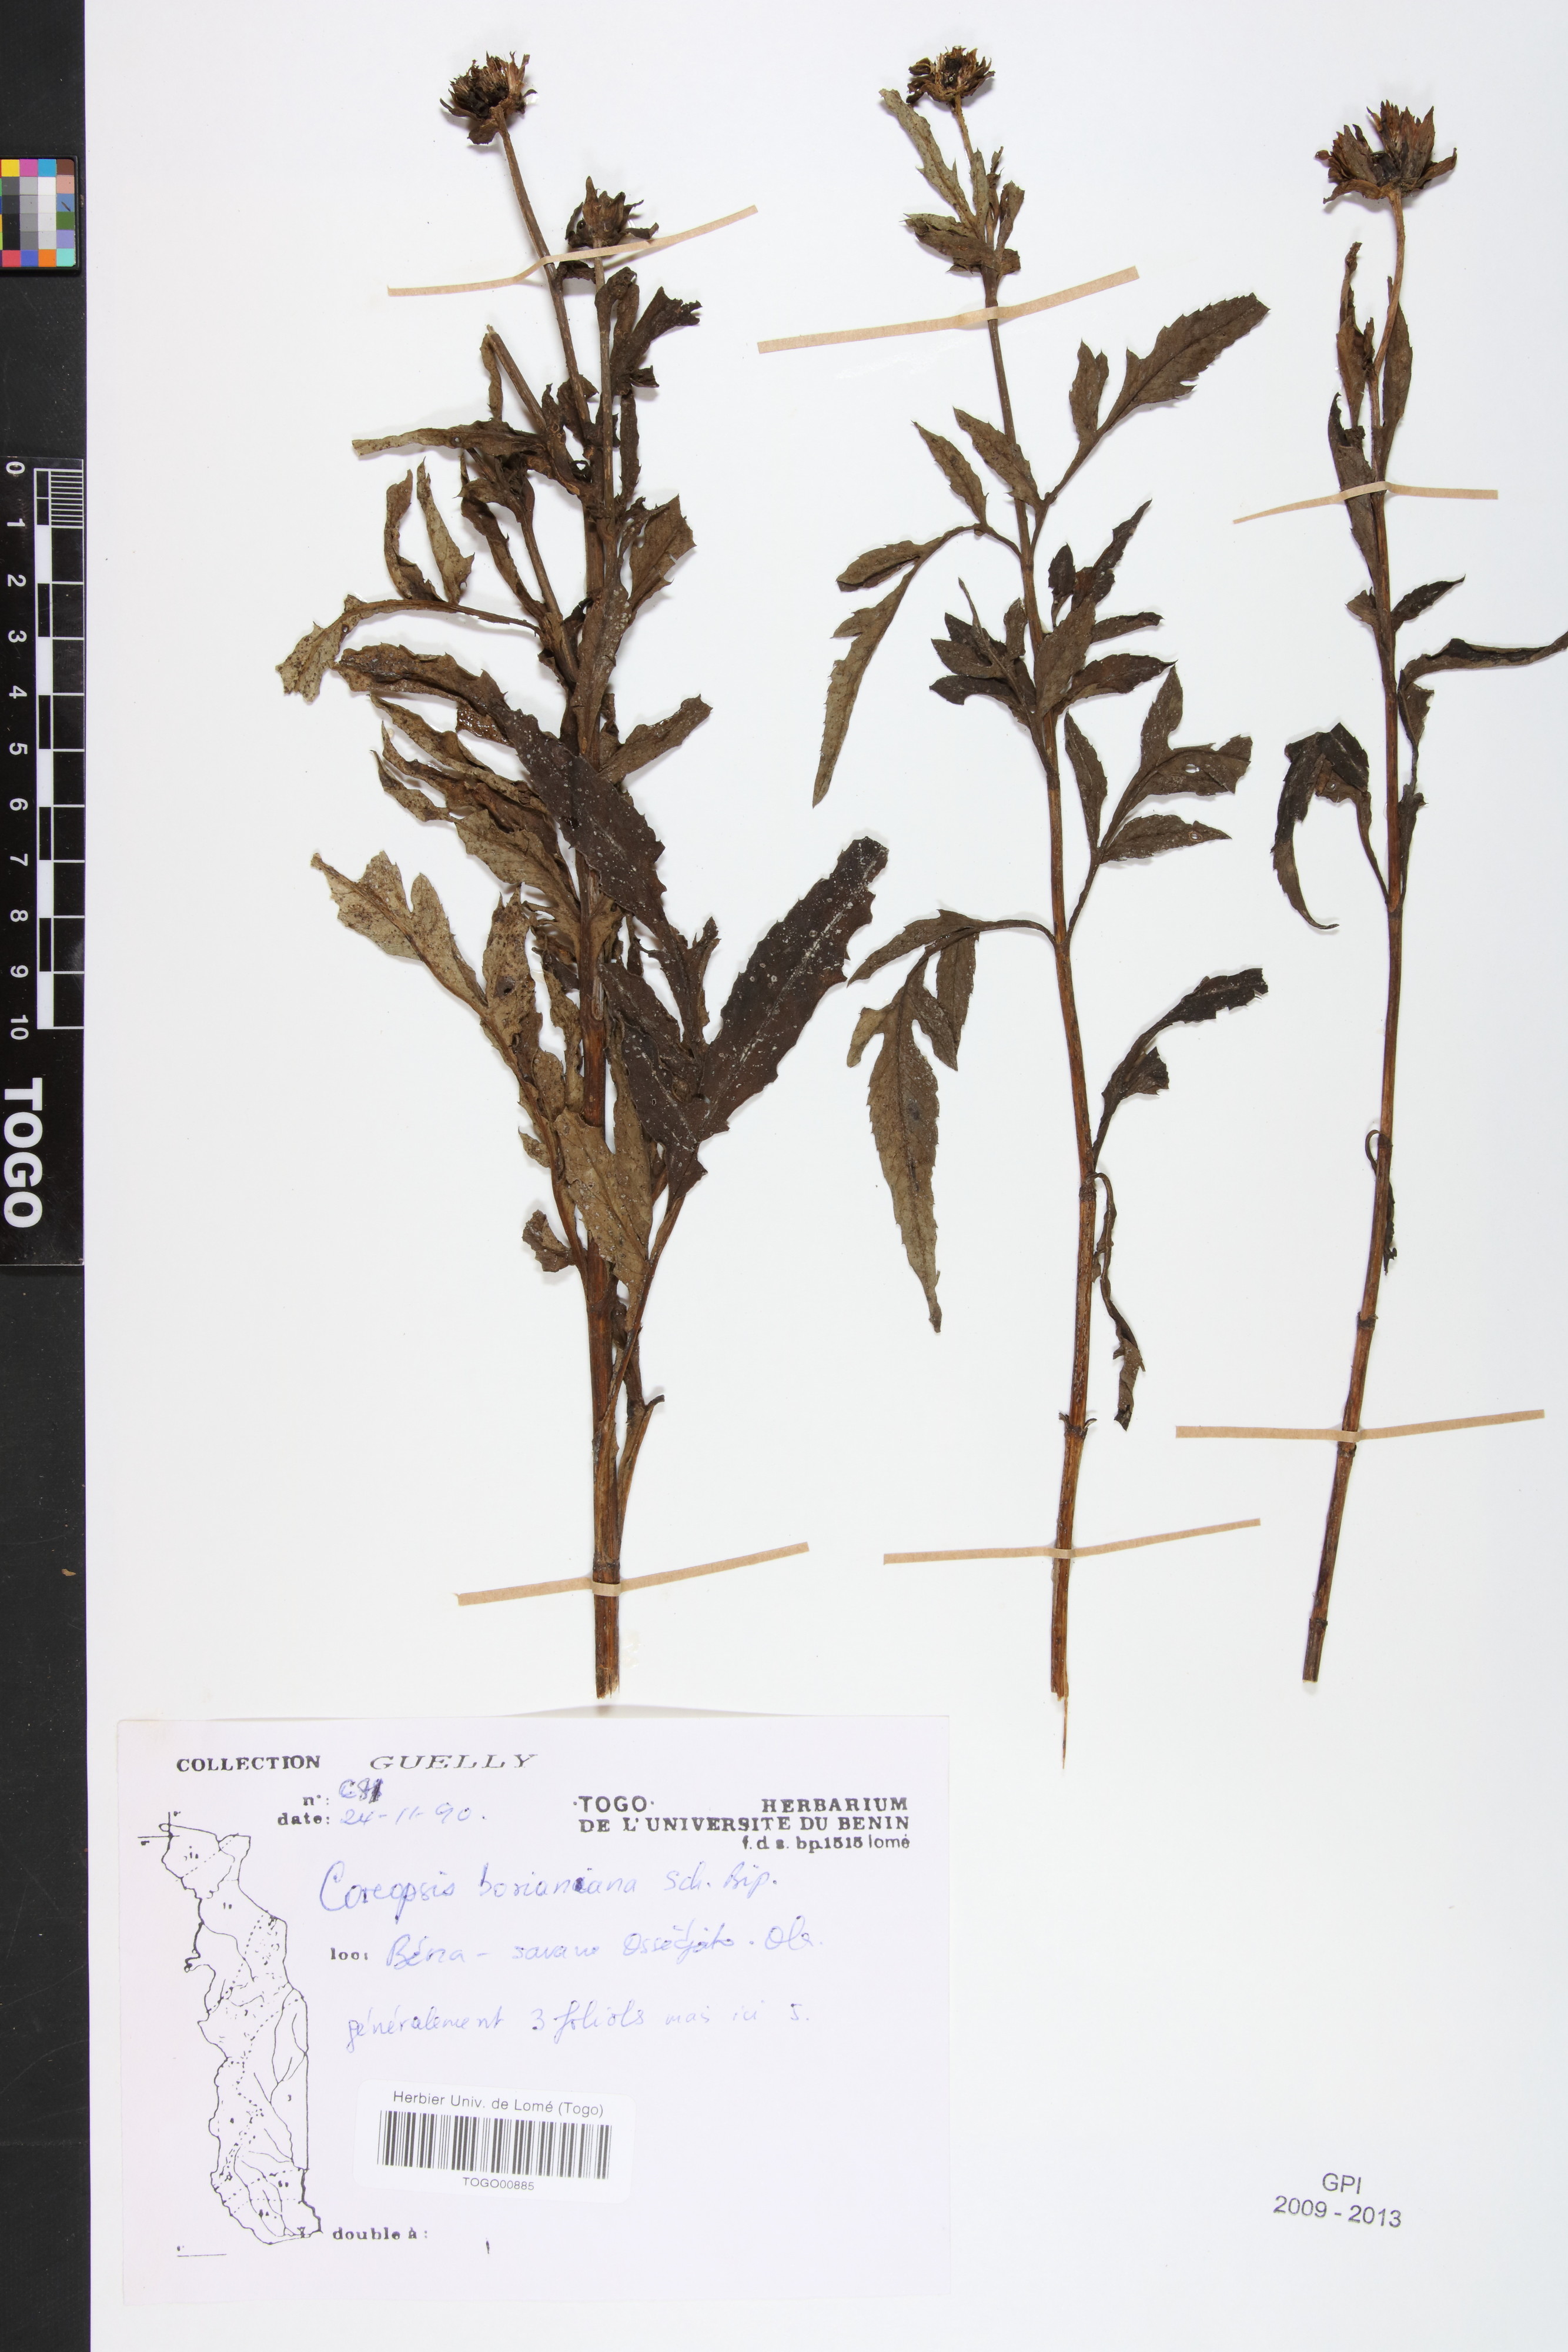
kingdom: Plantae
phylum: Tracheophyta
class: Magnoliopsida
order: Asterales
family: Asteraceae
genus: Bidens
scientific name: Bidens borianiana
